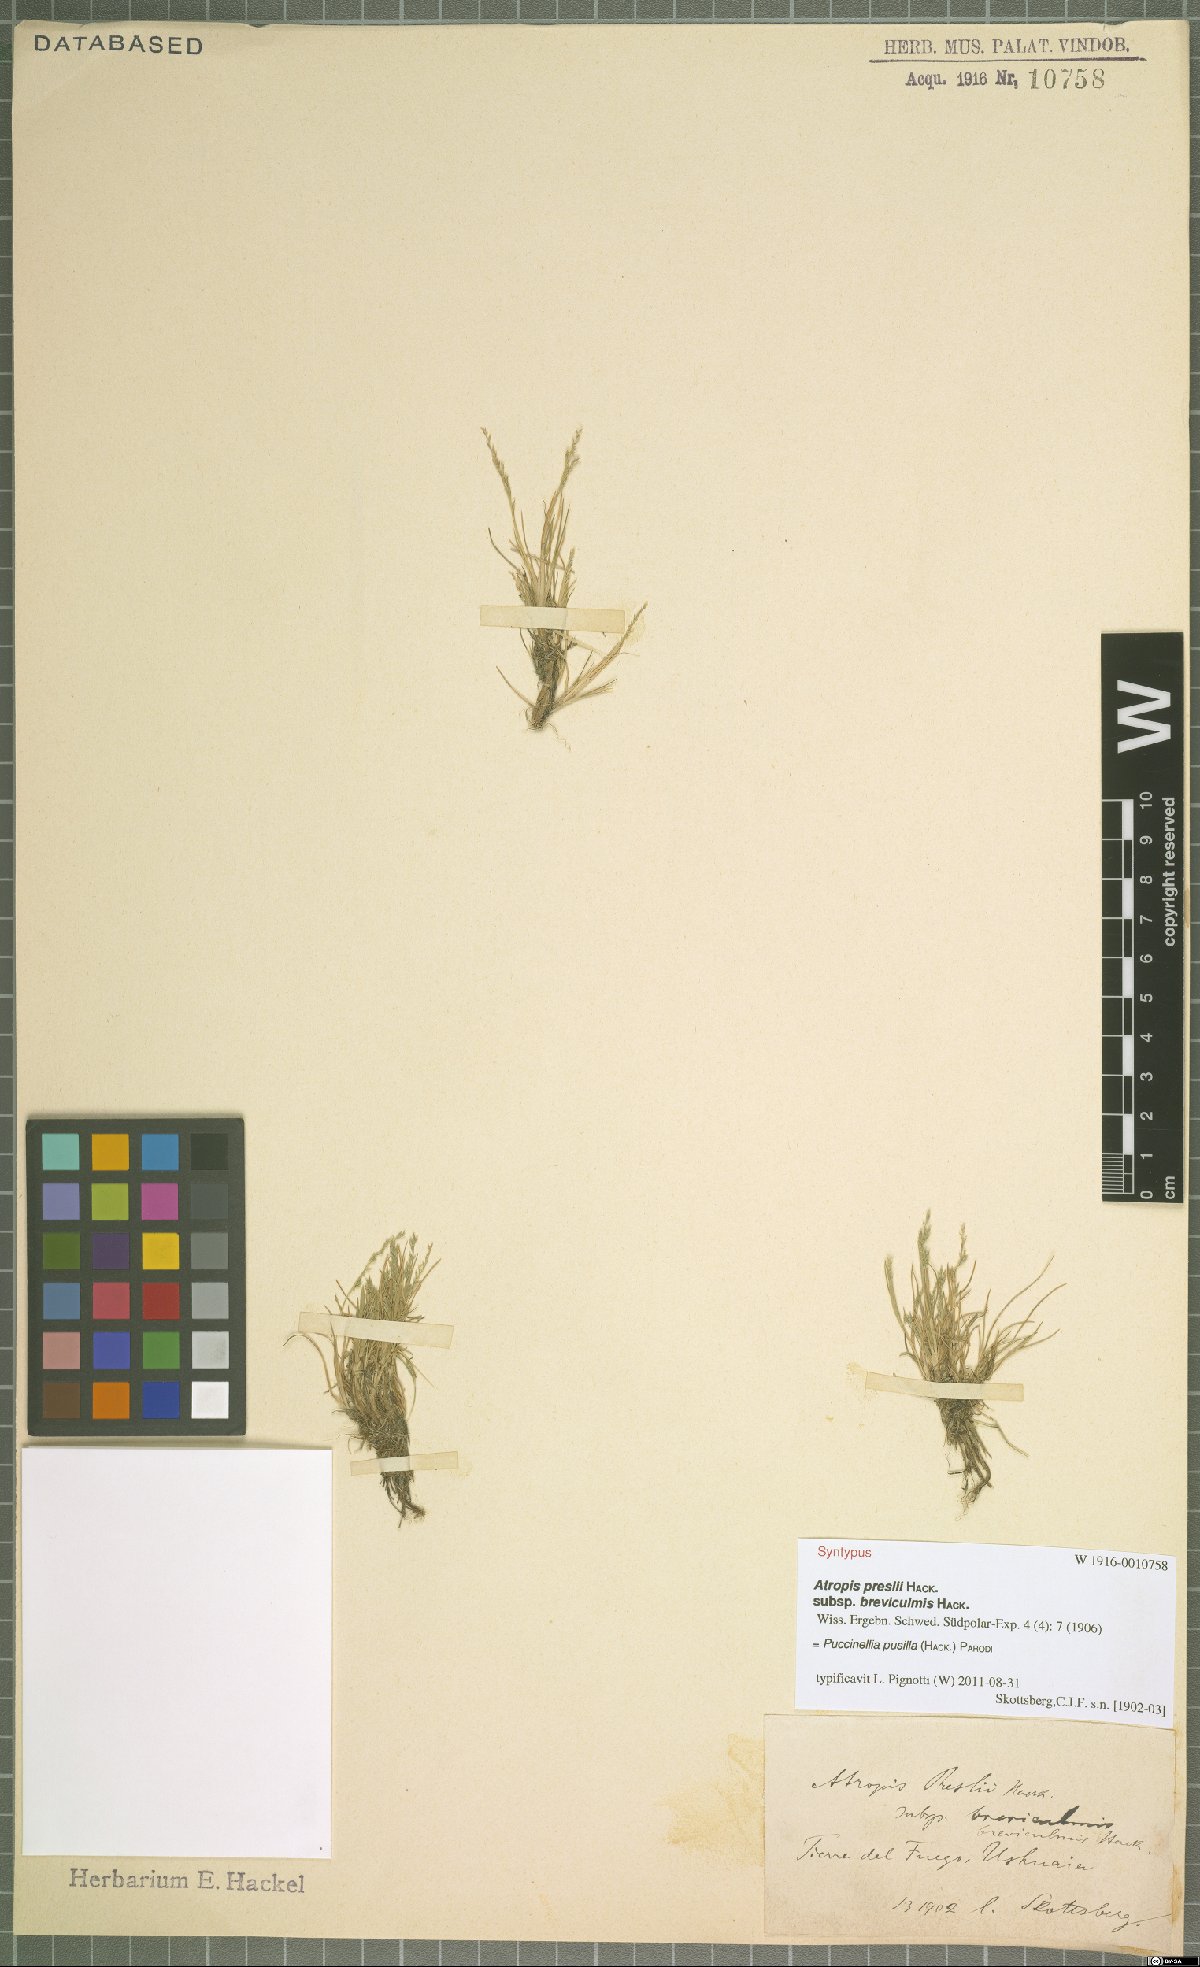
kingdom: Plantae
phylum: Tracheophyta
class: Liliopsida
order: Poales
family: Poaceae
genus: Puccinellia
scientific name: Puccinellia pusilla
